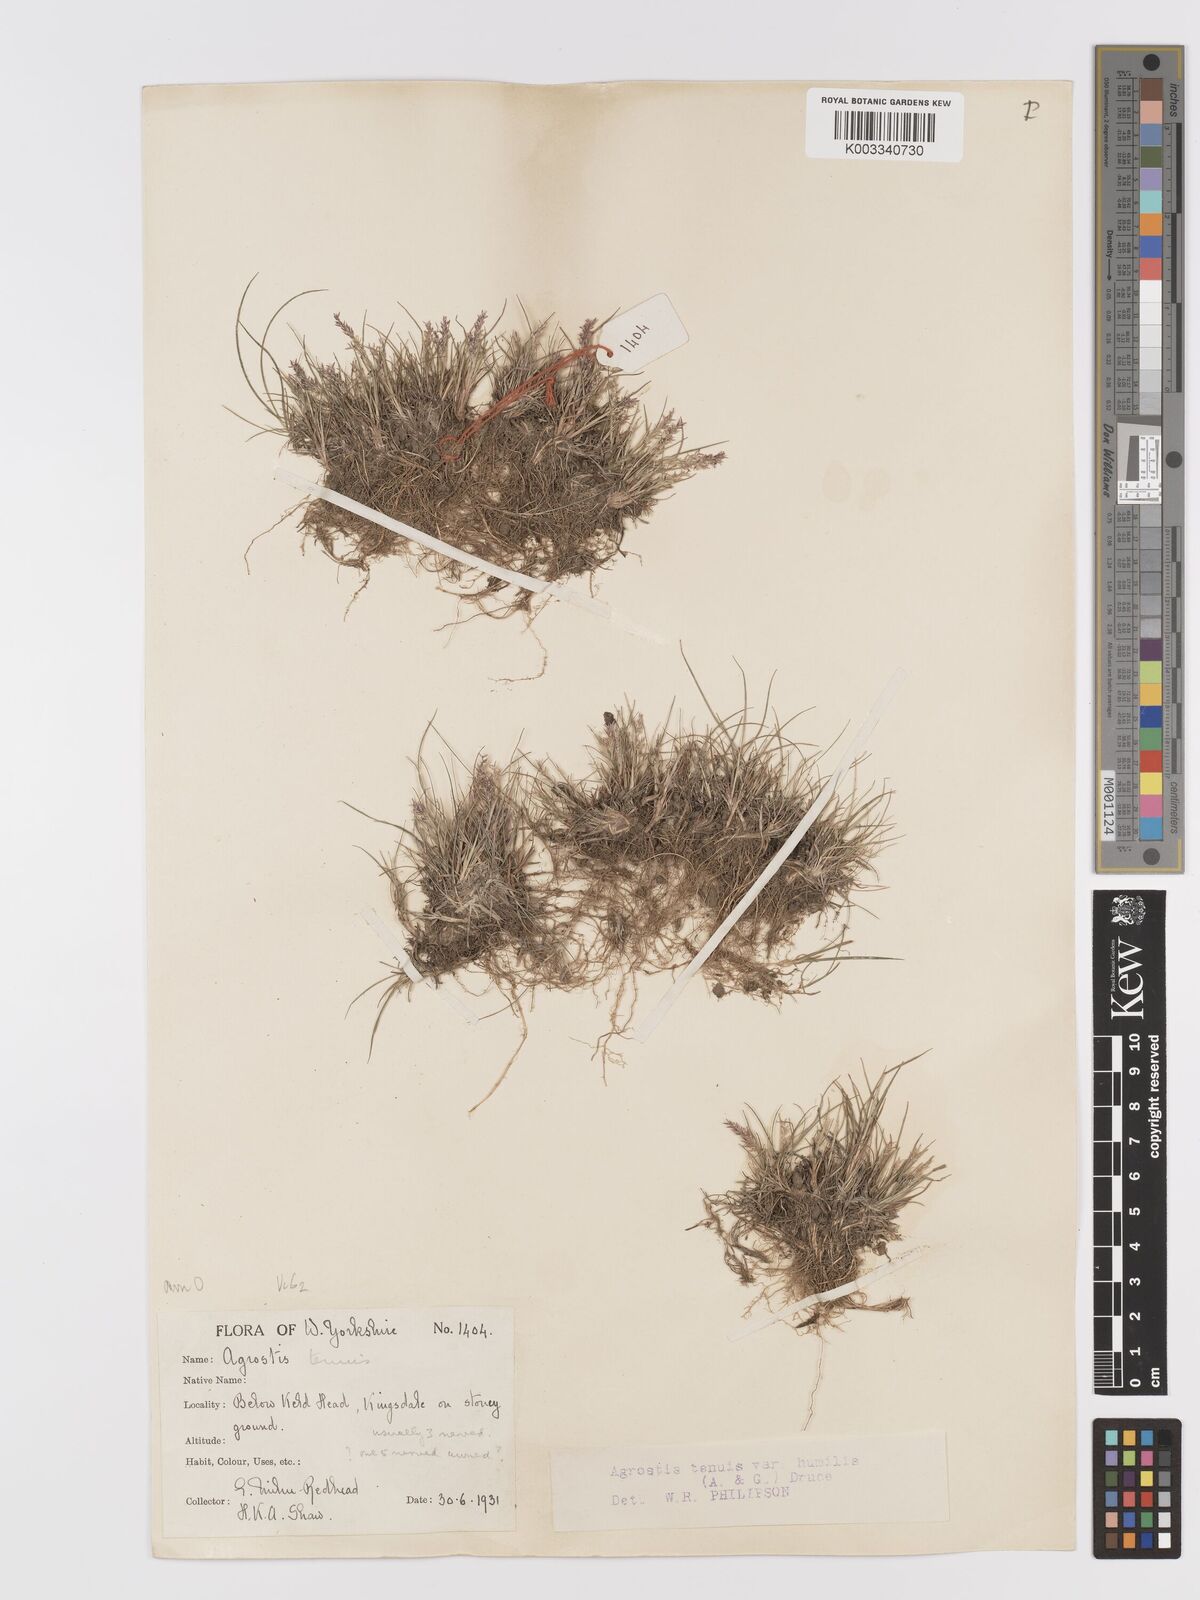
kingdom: Plantae
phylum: Tracheophyta
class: Liliopsida
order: Poales
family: Poaceae
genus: Agrostis
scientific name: Agrostis capillaris
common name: Colonial bentgrass
